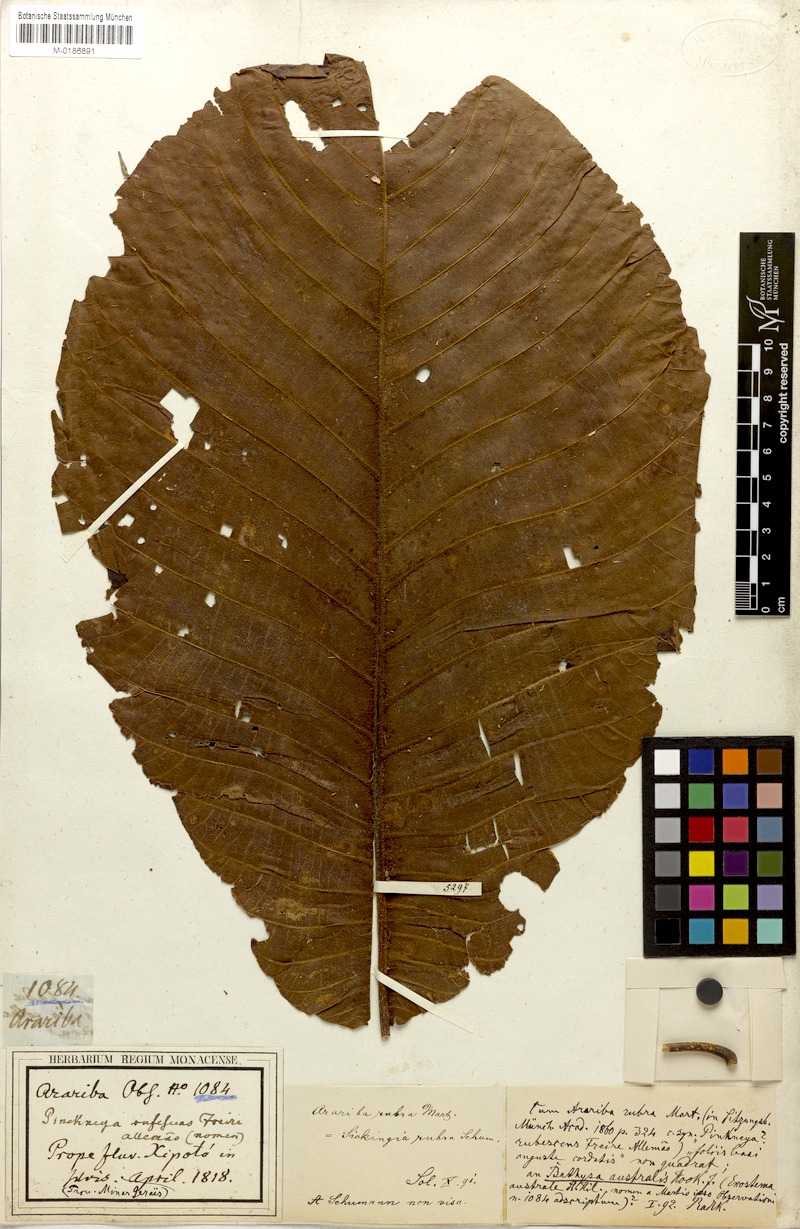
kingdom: Plantae
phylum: Tracheophyta
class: Magnoliopsida
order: Gentianales
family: Rubiaceae
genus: Simira
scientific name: Simira rubra
